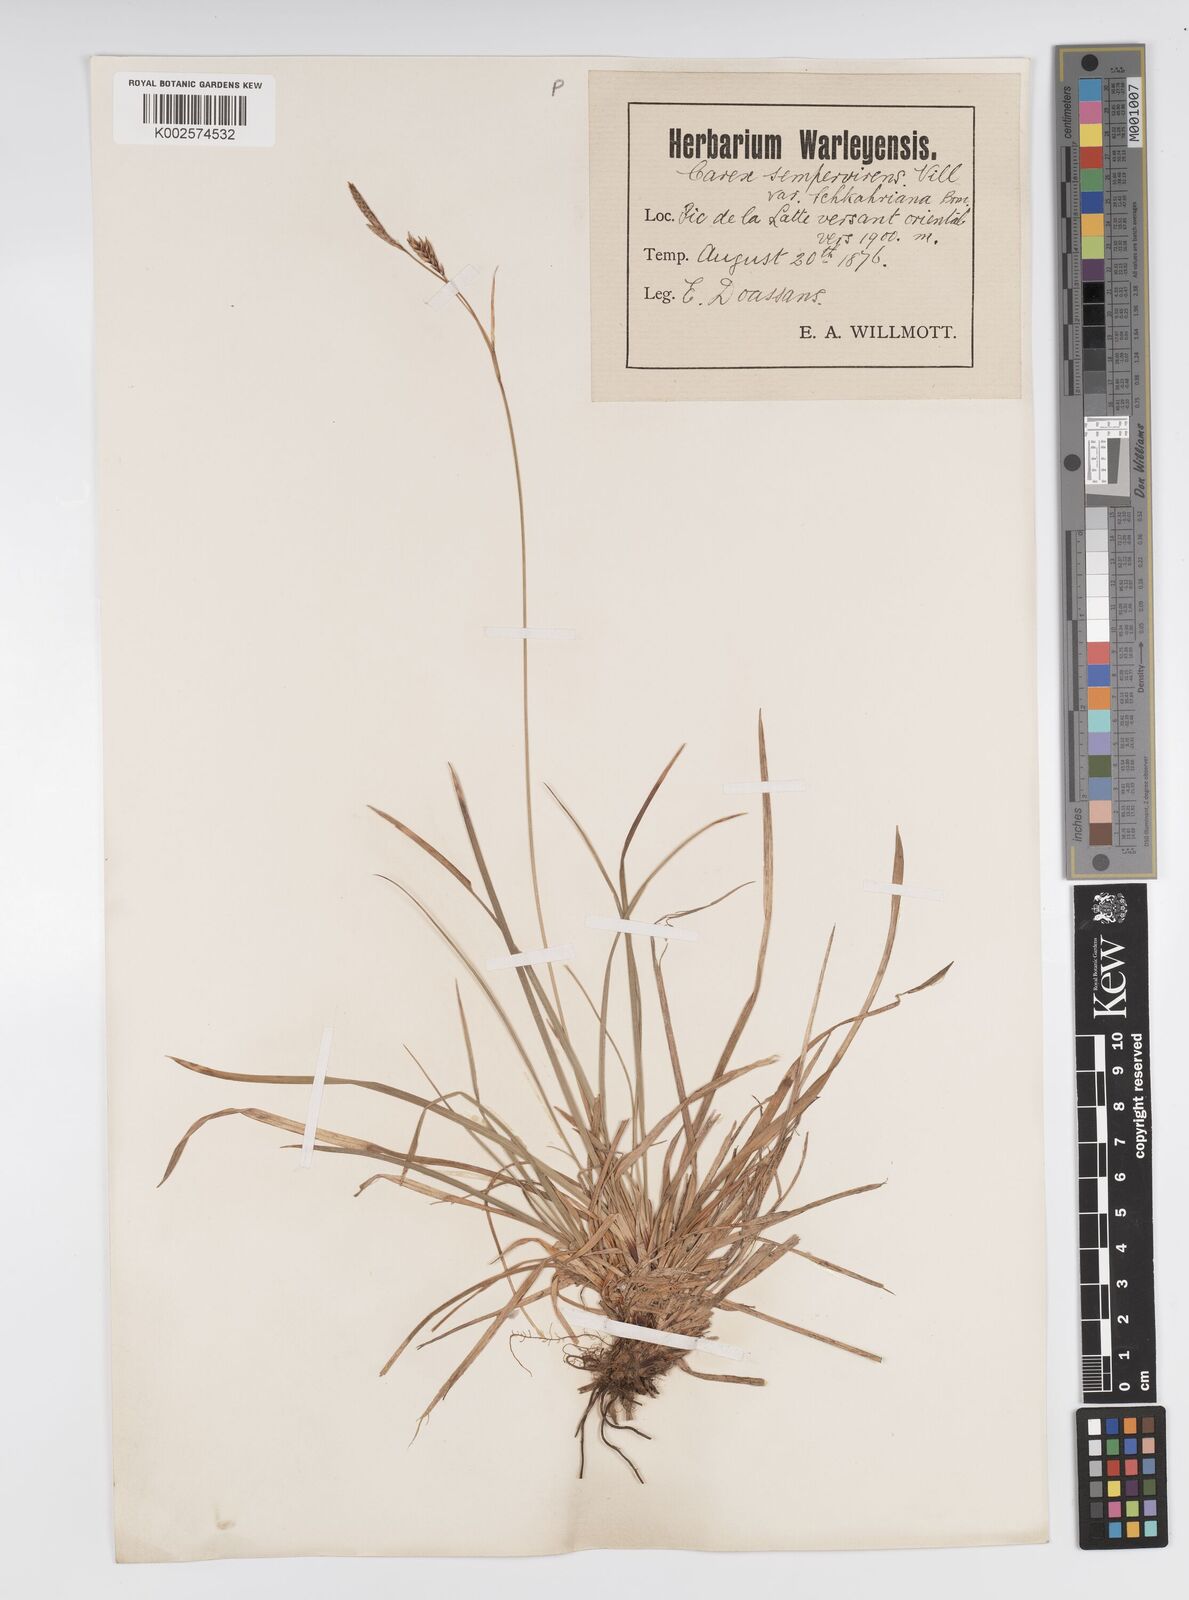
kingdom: Plantae
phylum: Tracheophyta
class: Liliopsida
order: Poales
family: Cyperaceae
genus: Carex
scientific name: Carex sempervirens
